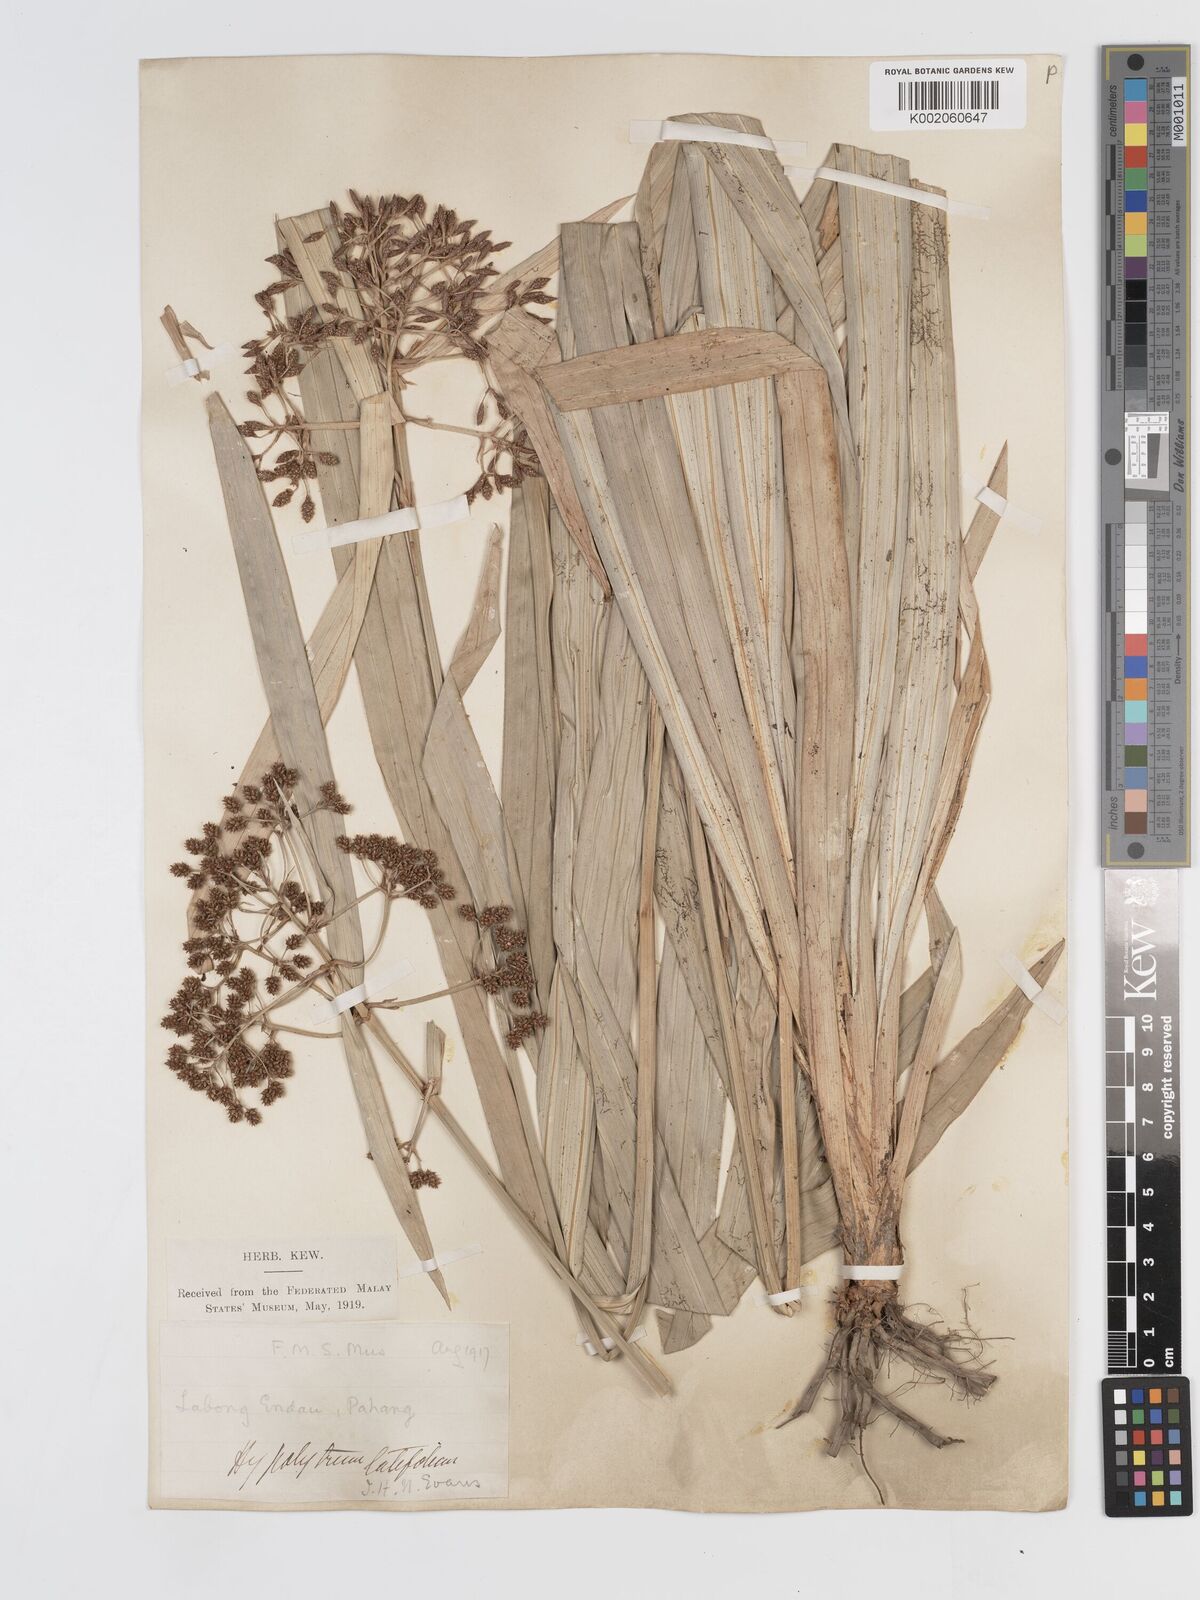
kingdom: Plantae
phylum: Tracheophyta
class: Liliopsida
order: Poales
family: Cyperaceae
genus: Hypolytrum
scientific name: Hypolytrum nemorum
